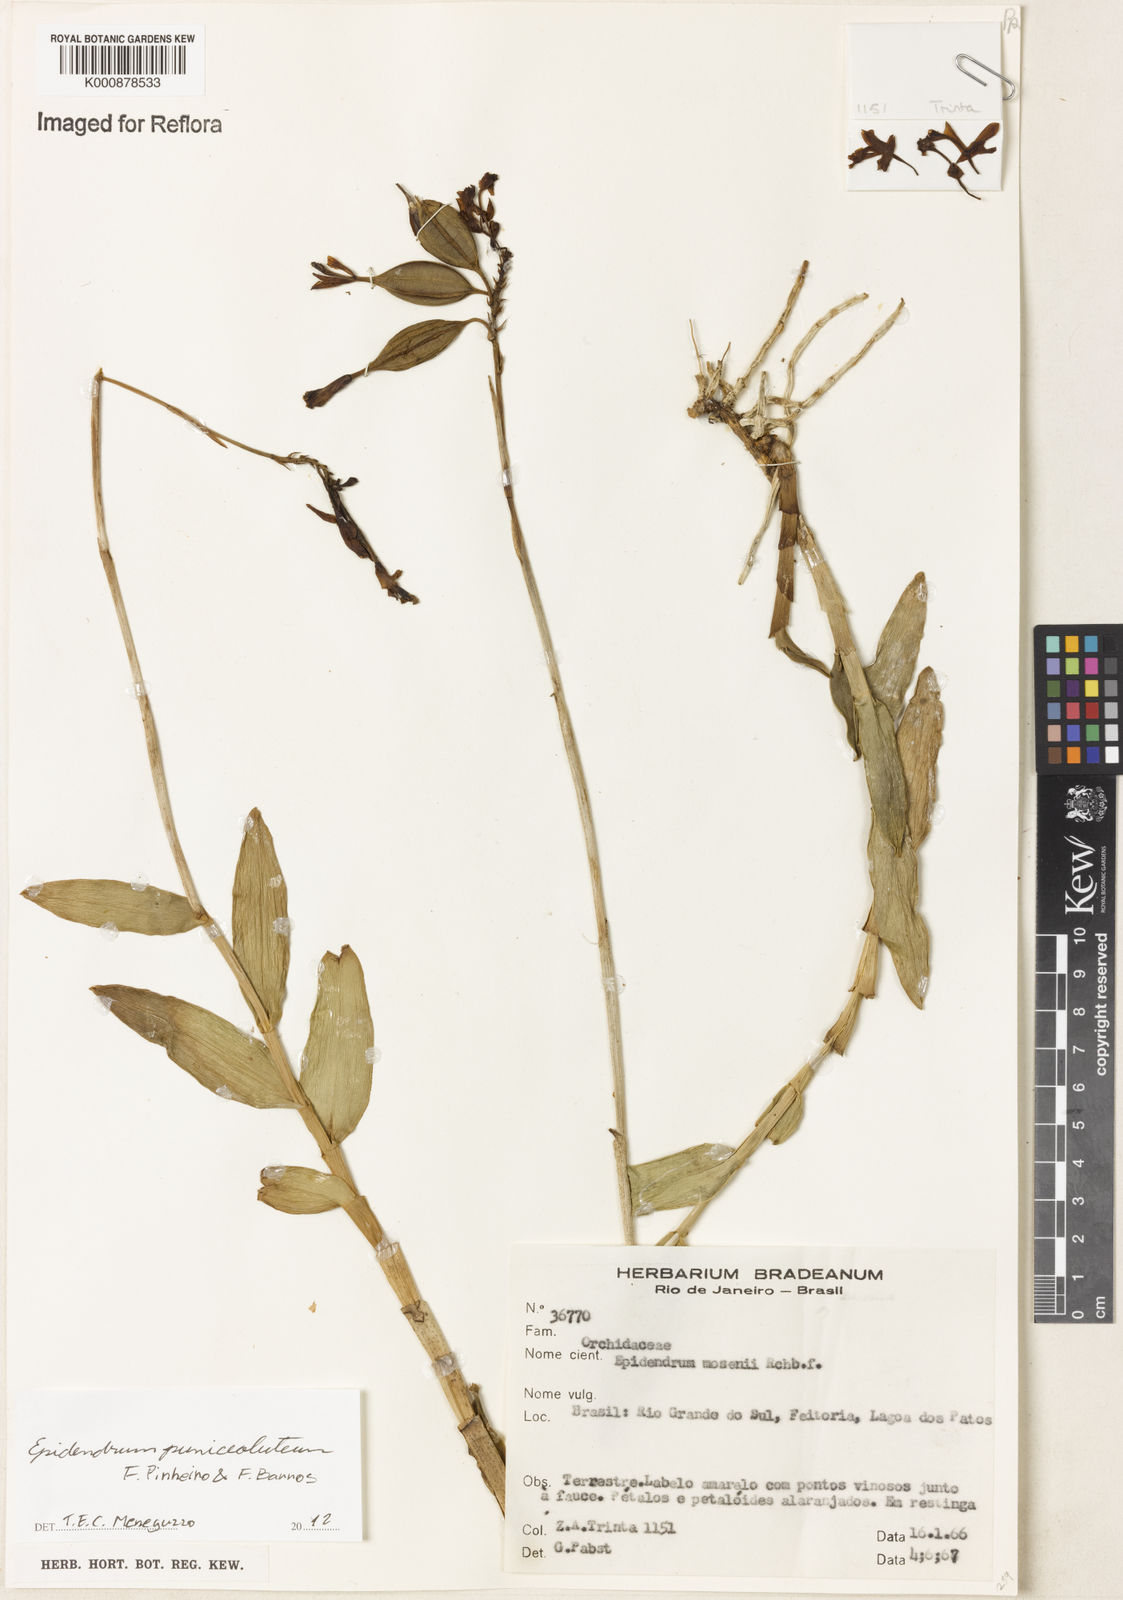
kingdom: Plantae
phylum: Tracheophyta
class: Liliopsida
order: Asparagales
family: Orchidaceae
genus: Epidendrum
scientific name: Epidendrum puniceoluteum
